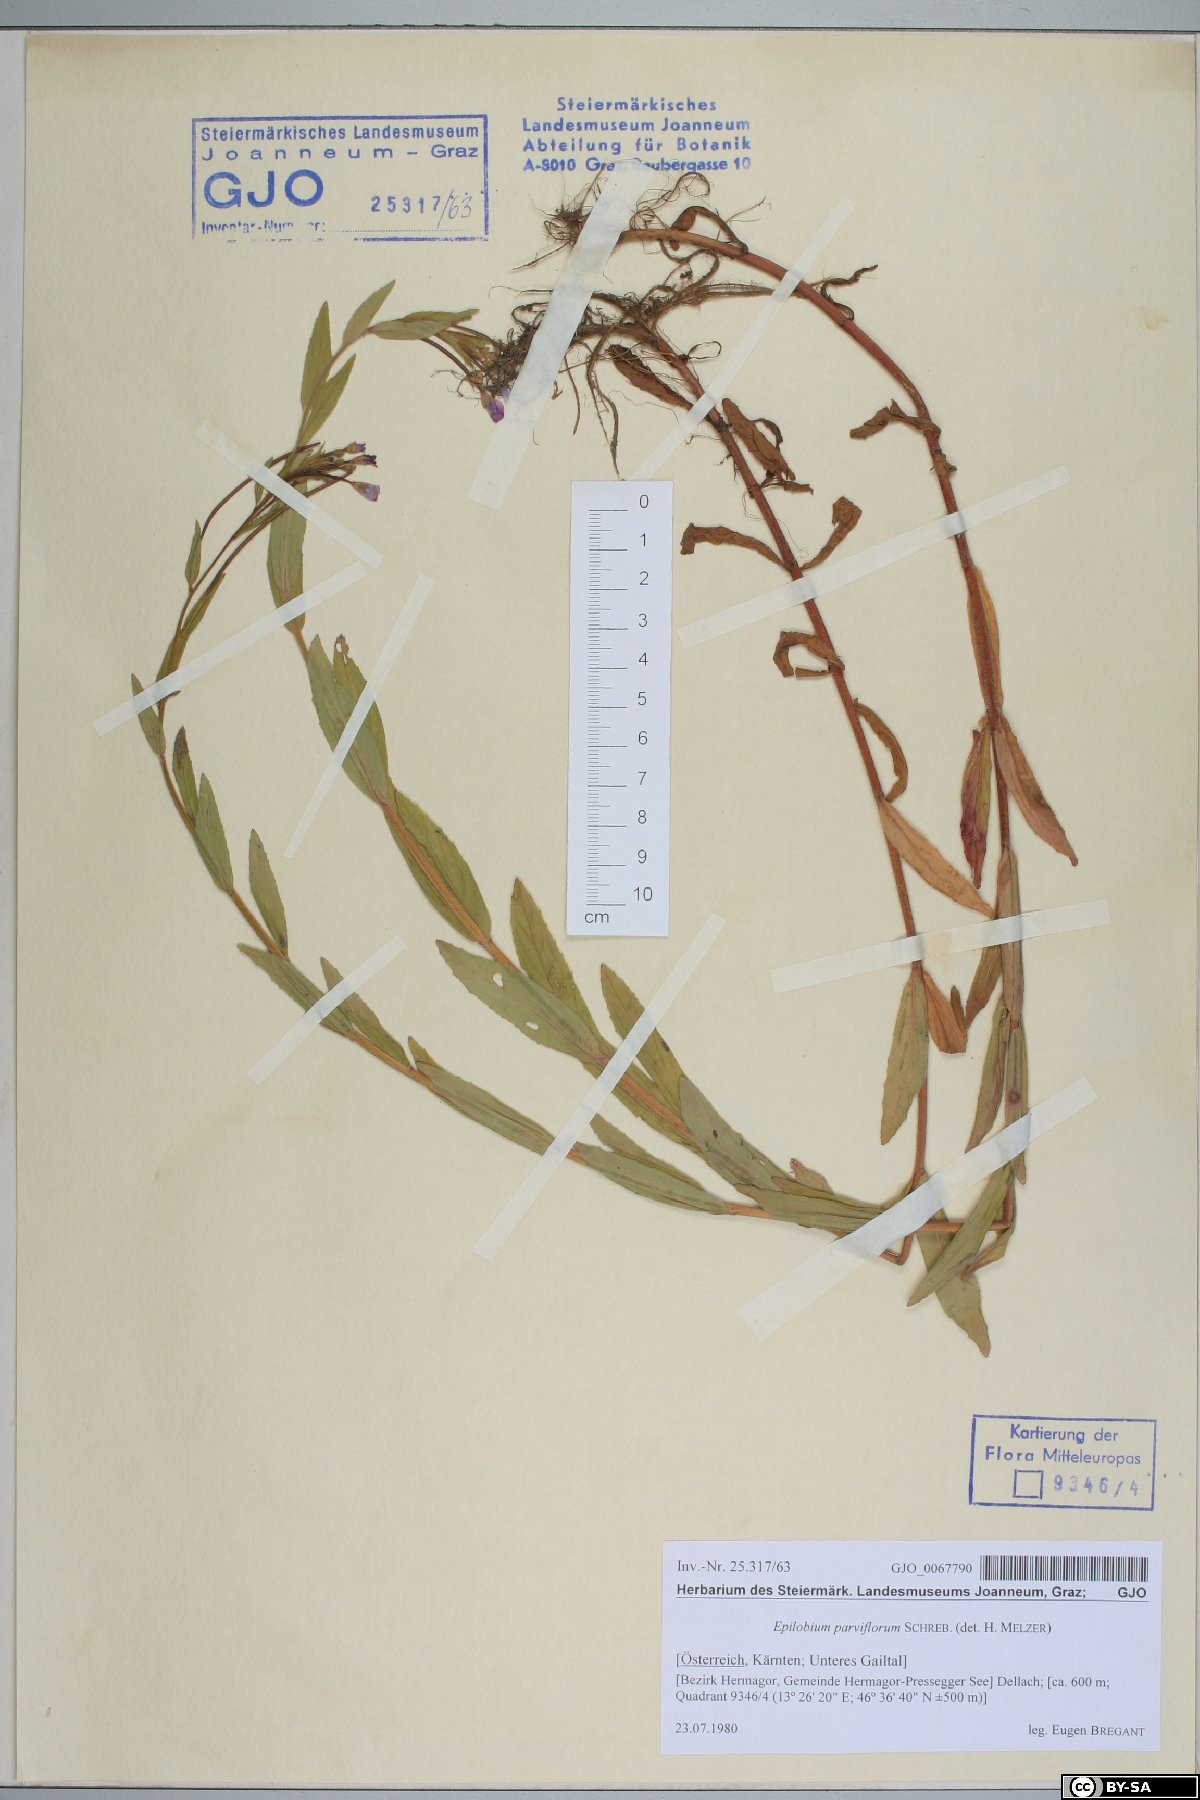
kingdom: Plantae
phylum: Tracheophyta
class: Magnoliopsida
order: Myrtales
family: Onagraceae
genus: Epilobium
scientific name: Epilobium parviflorum
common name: Hoary willowherb
